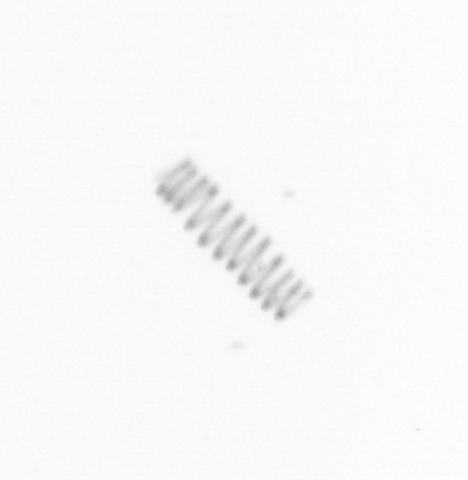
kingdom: Chromista
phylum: Ochrophyta
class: Bacillariophyceae
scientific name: Bacillariophyceae
